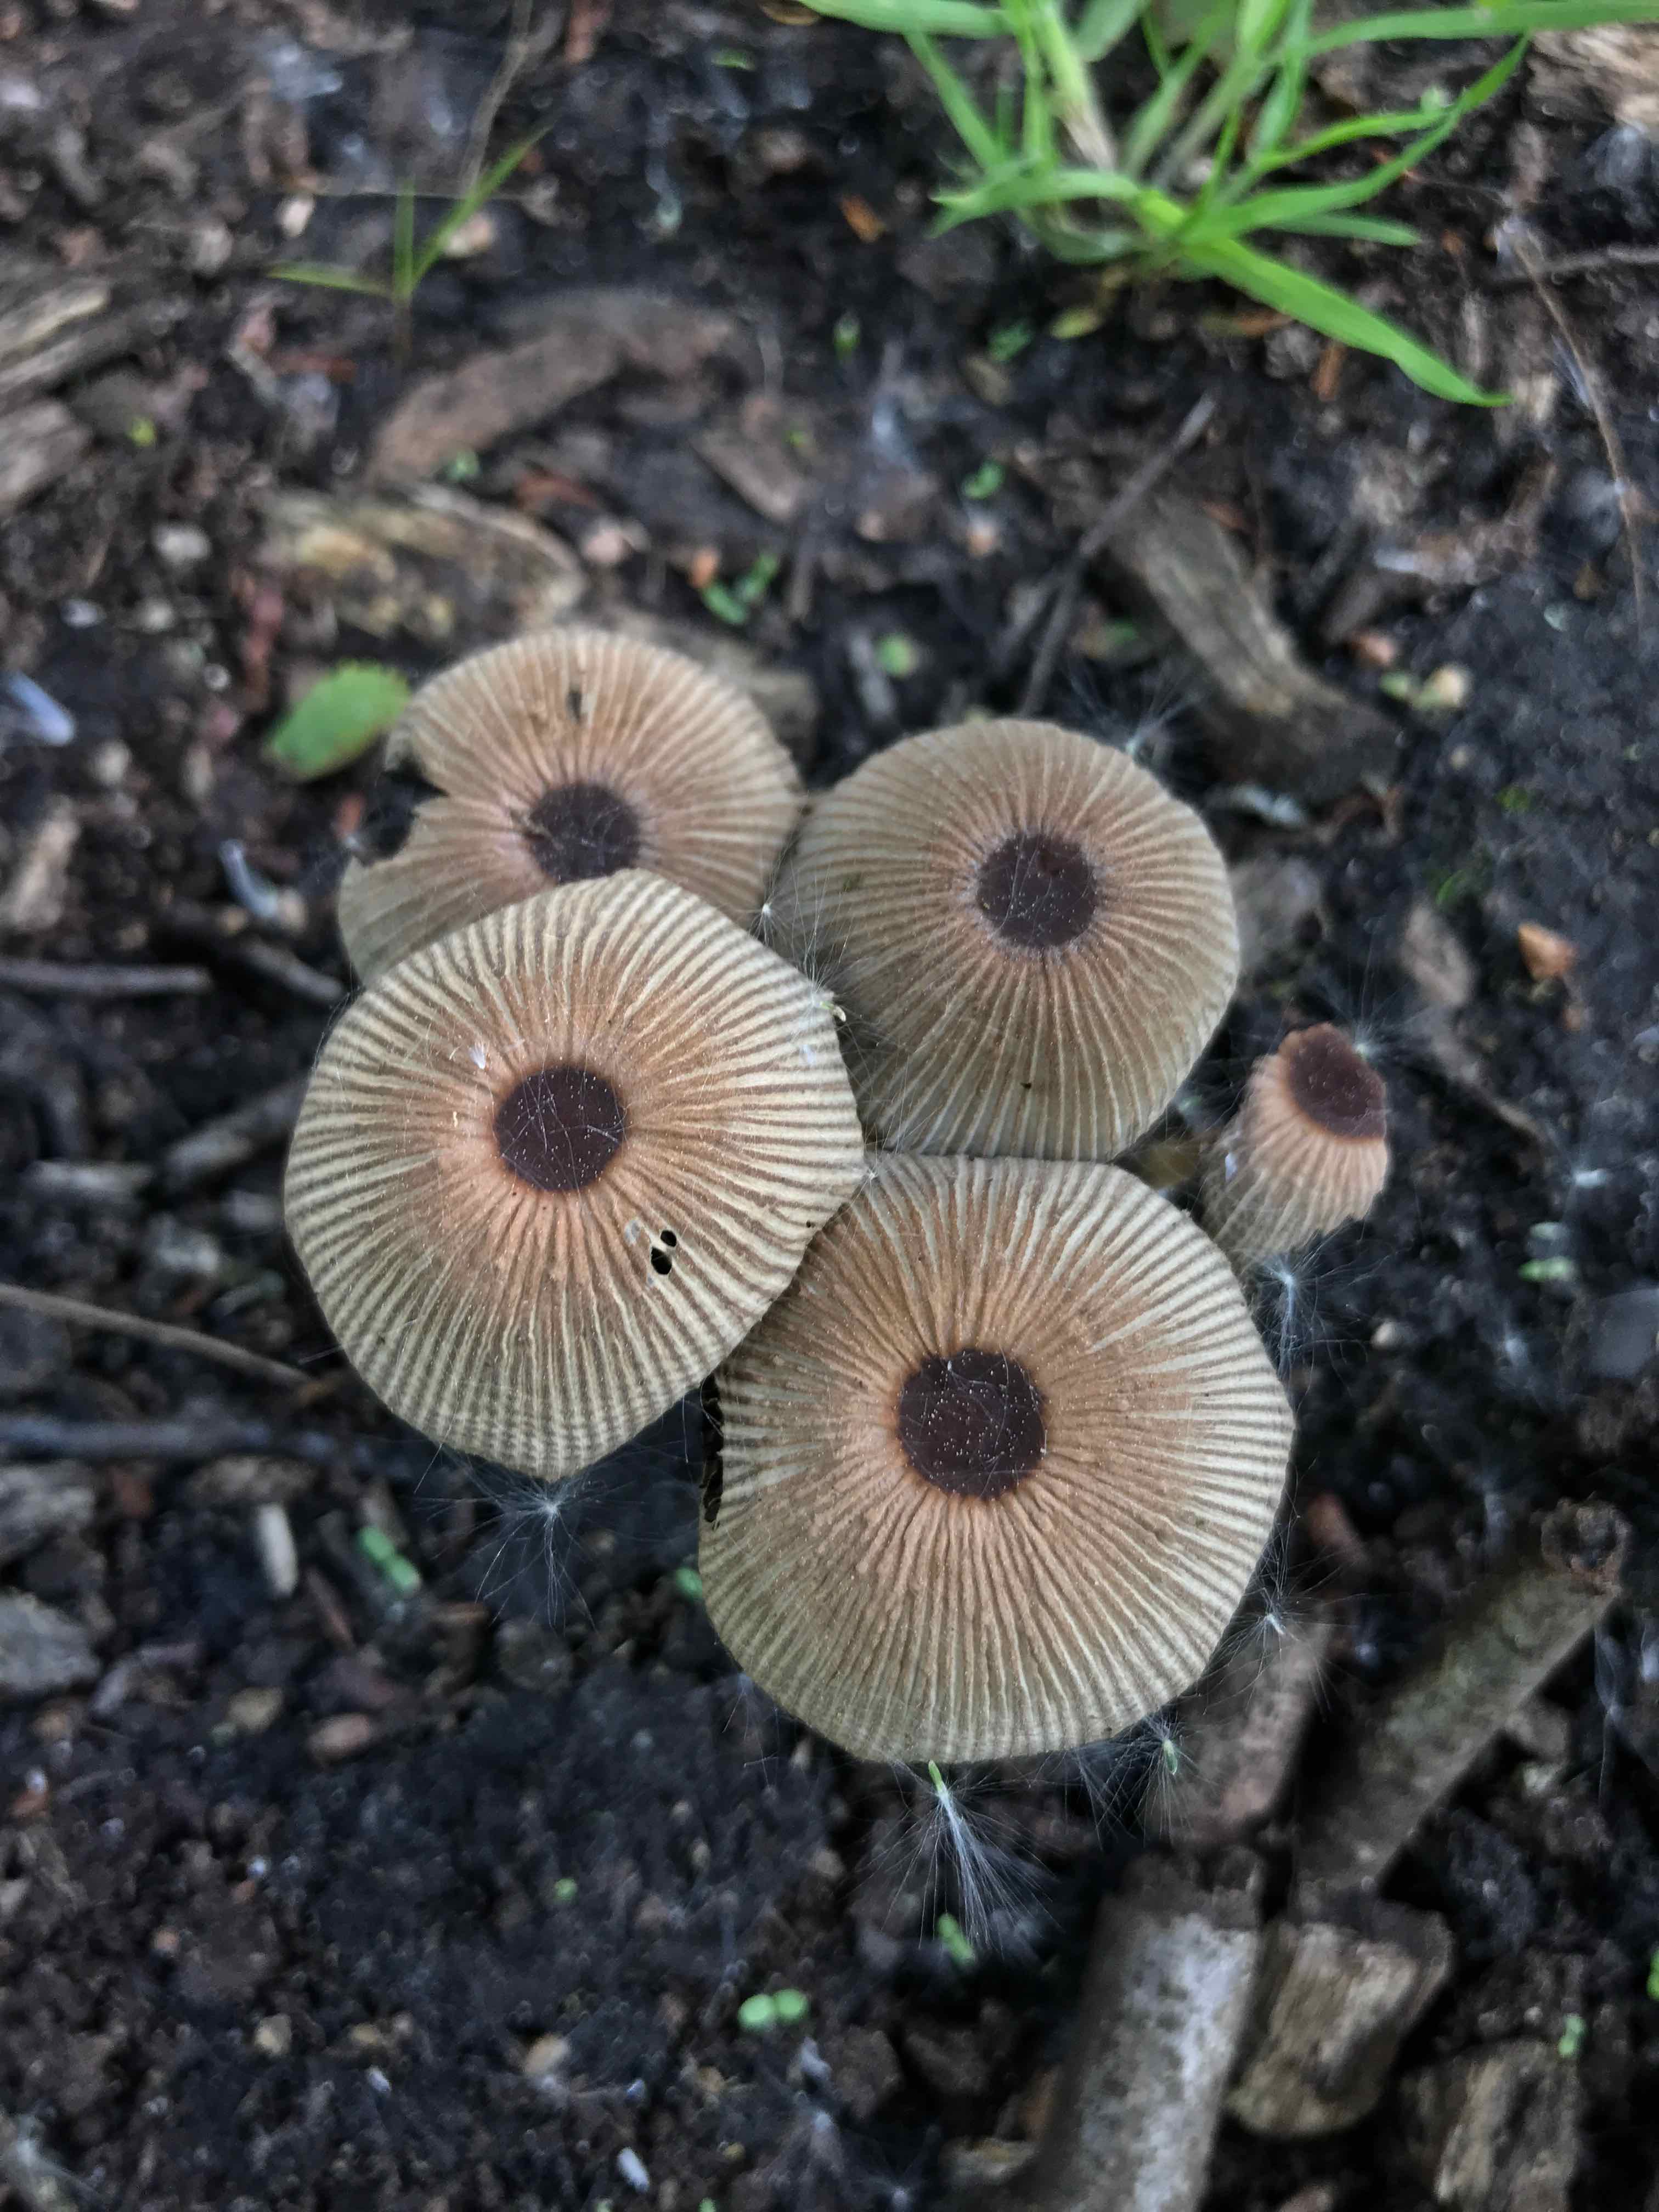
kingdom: Fungi
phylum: Basidiomycota
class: Agaricomycetes
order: Agaricales
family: Psathyrellaceae
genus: Parasola
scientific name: Parasola
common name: hjulhat
